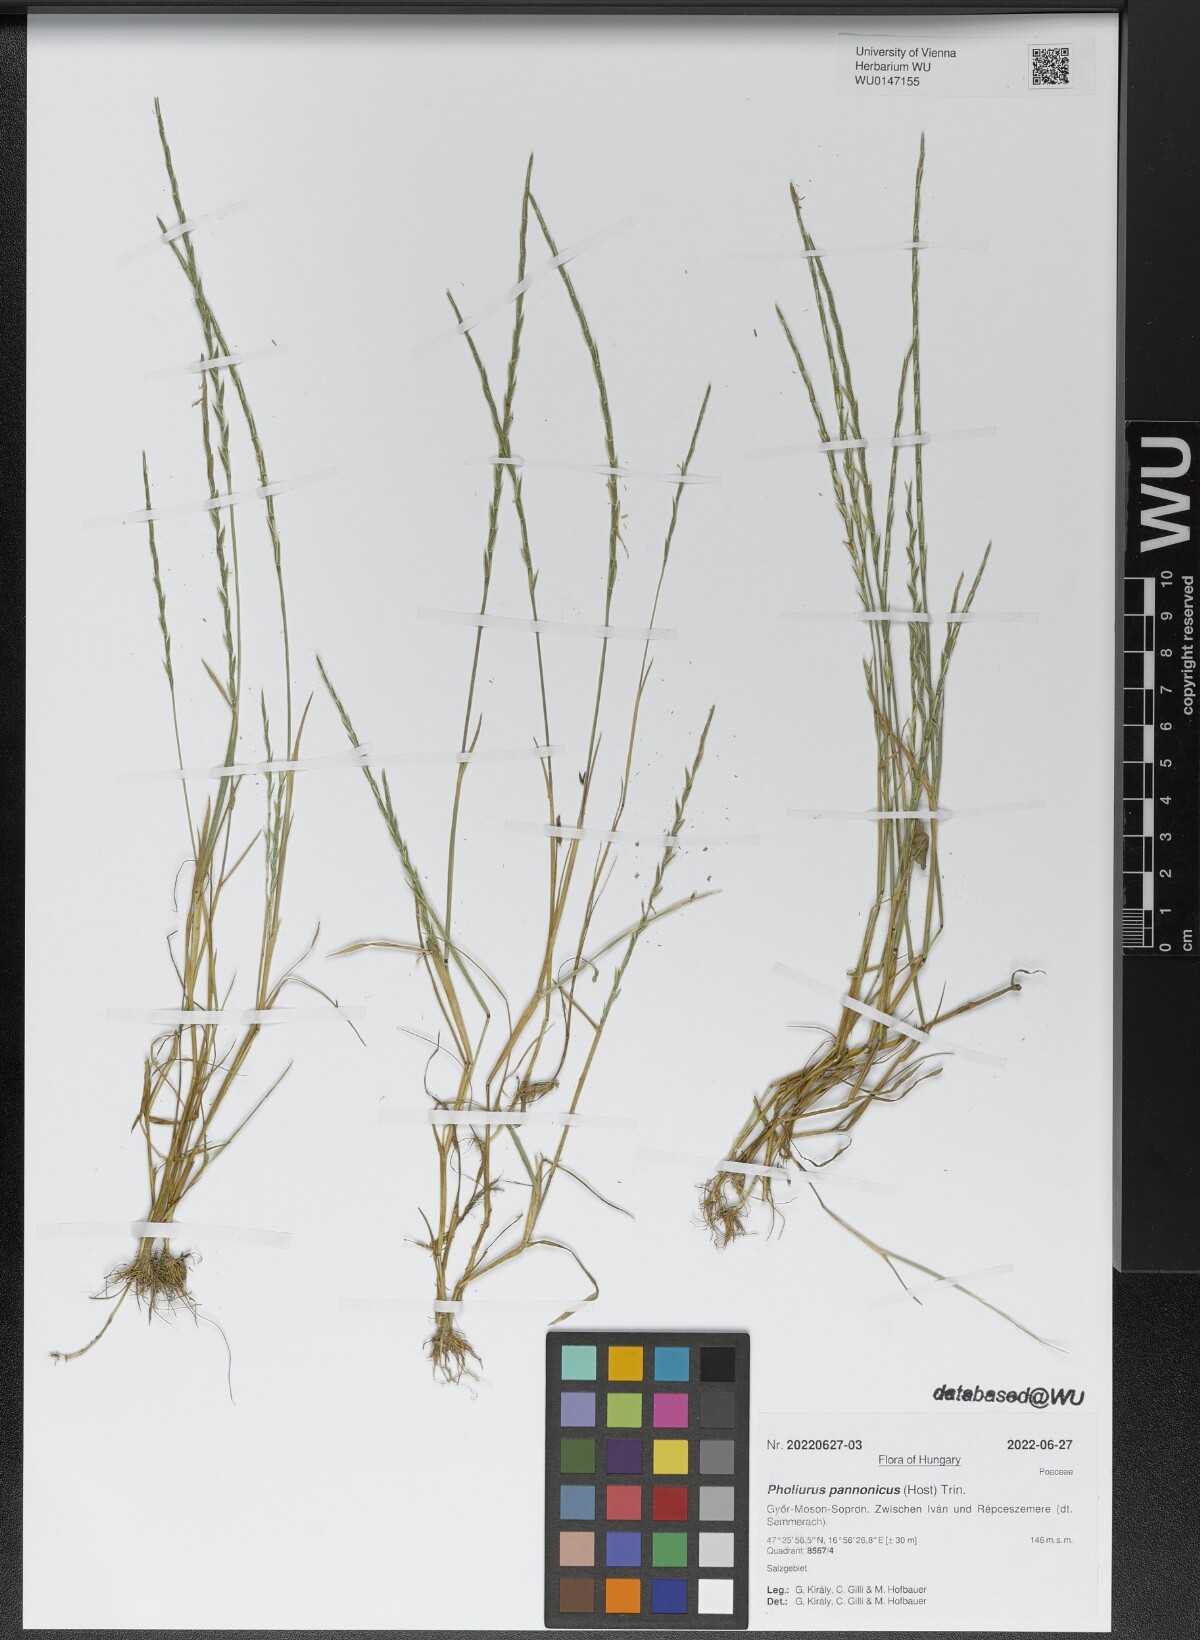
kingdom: Plantae
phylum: Tracheophyta
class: Liliopsida
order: Poales
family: Poaceae
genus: Pholiurus
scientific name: Pholiurus pannonicus
